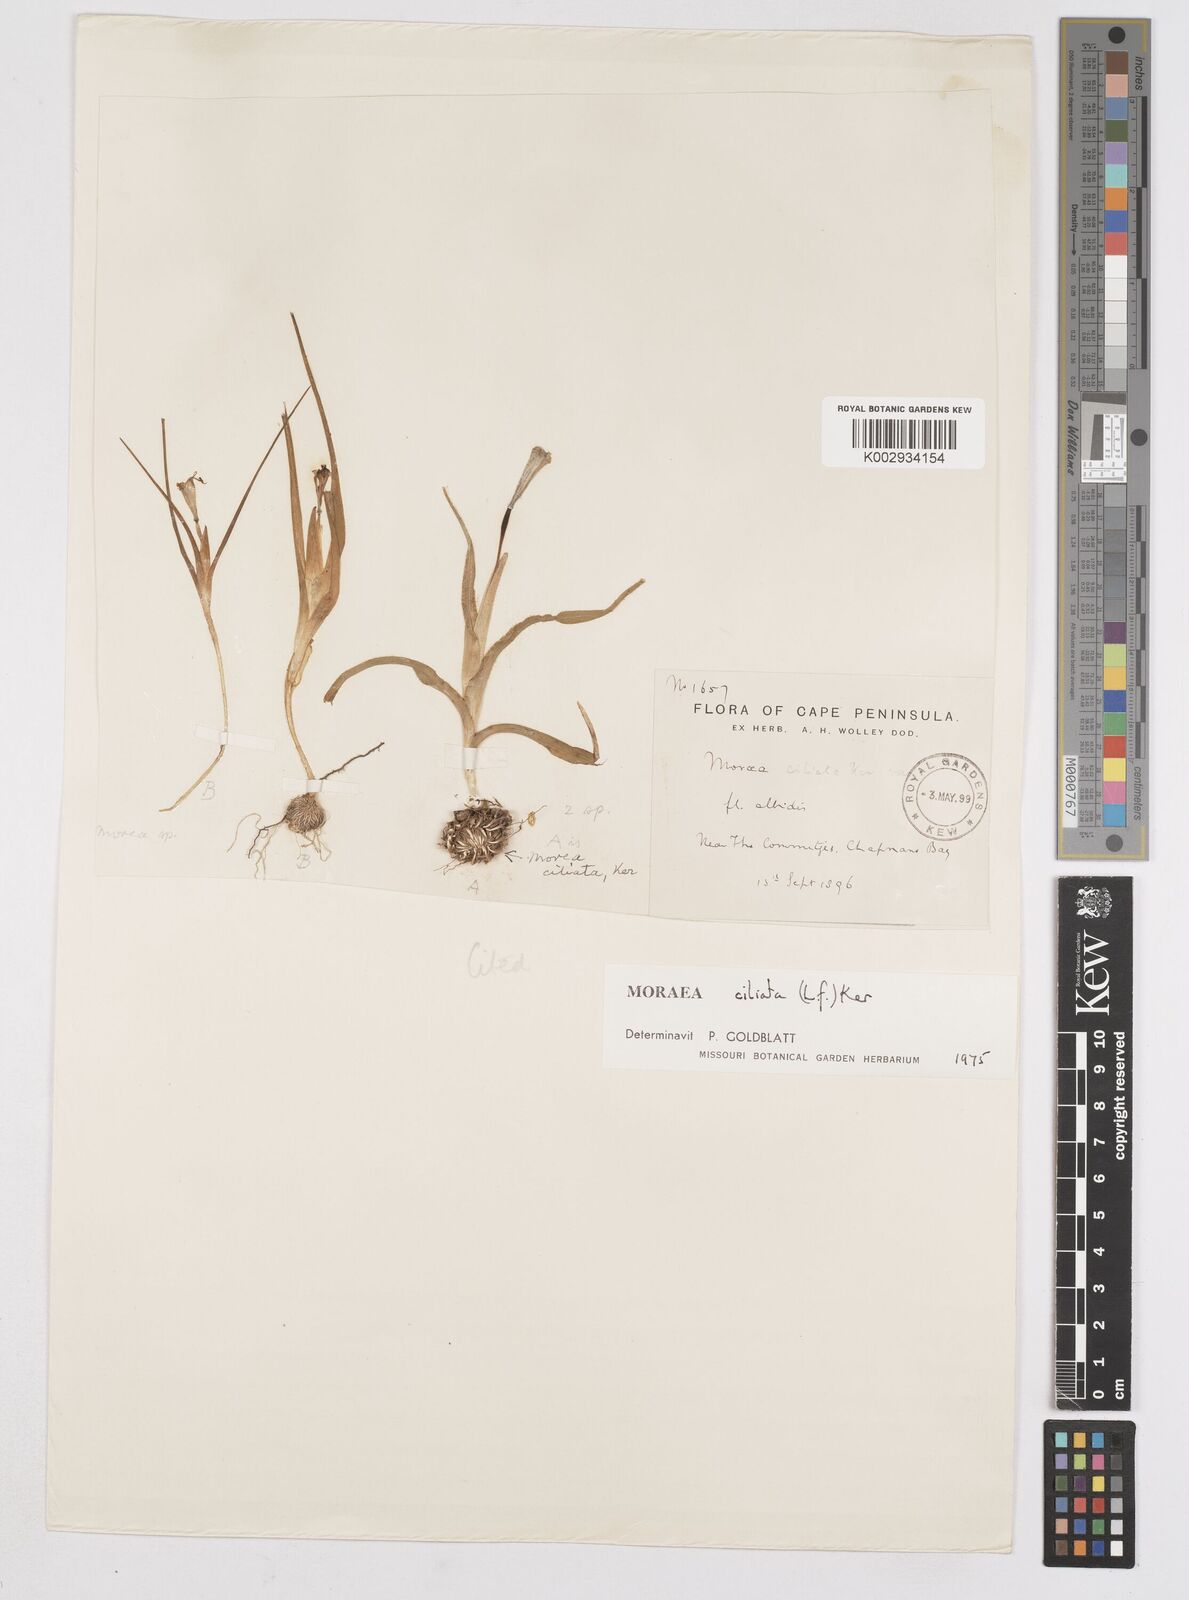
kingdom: Plantae
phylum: Tracheophyta
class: Liliopsida
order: Asparagales
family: Iridaceae
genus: Moraea
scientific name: Moraea ciliata
